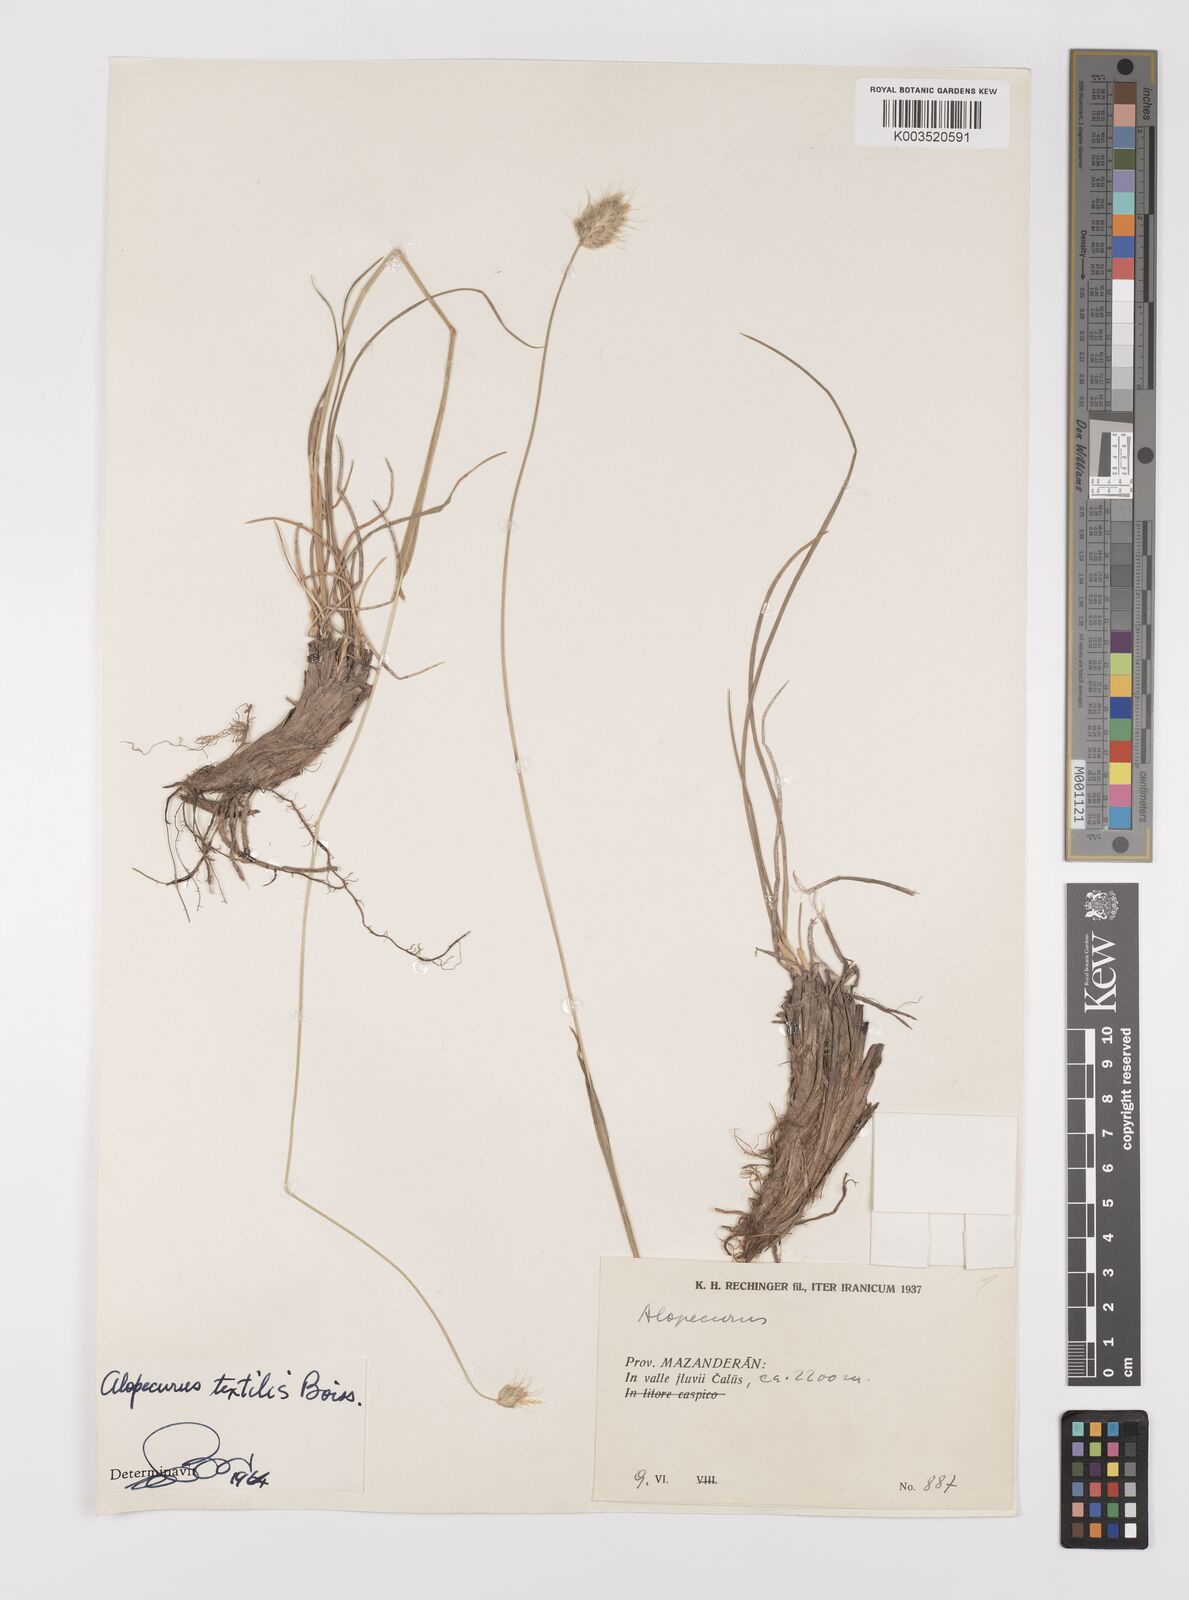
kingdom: Plantae
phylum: Tracheophyta
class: Liliopsida
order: Poales
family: Poaceae
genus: Alopecurus
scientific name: Alopecurus textilis
